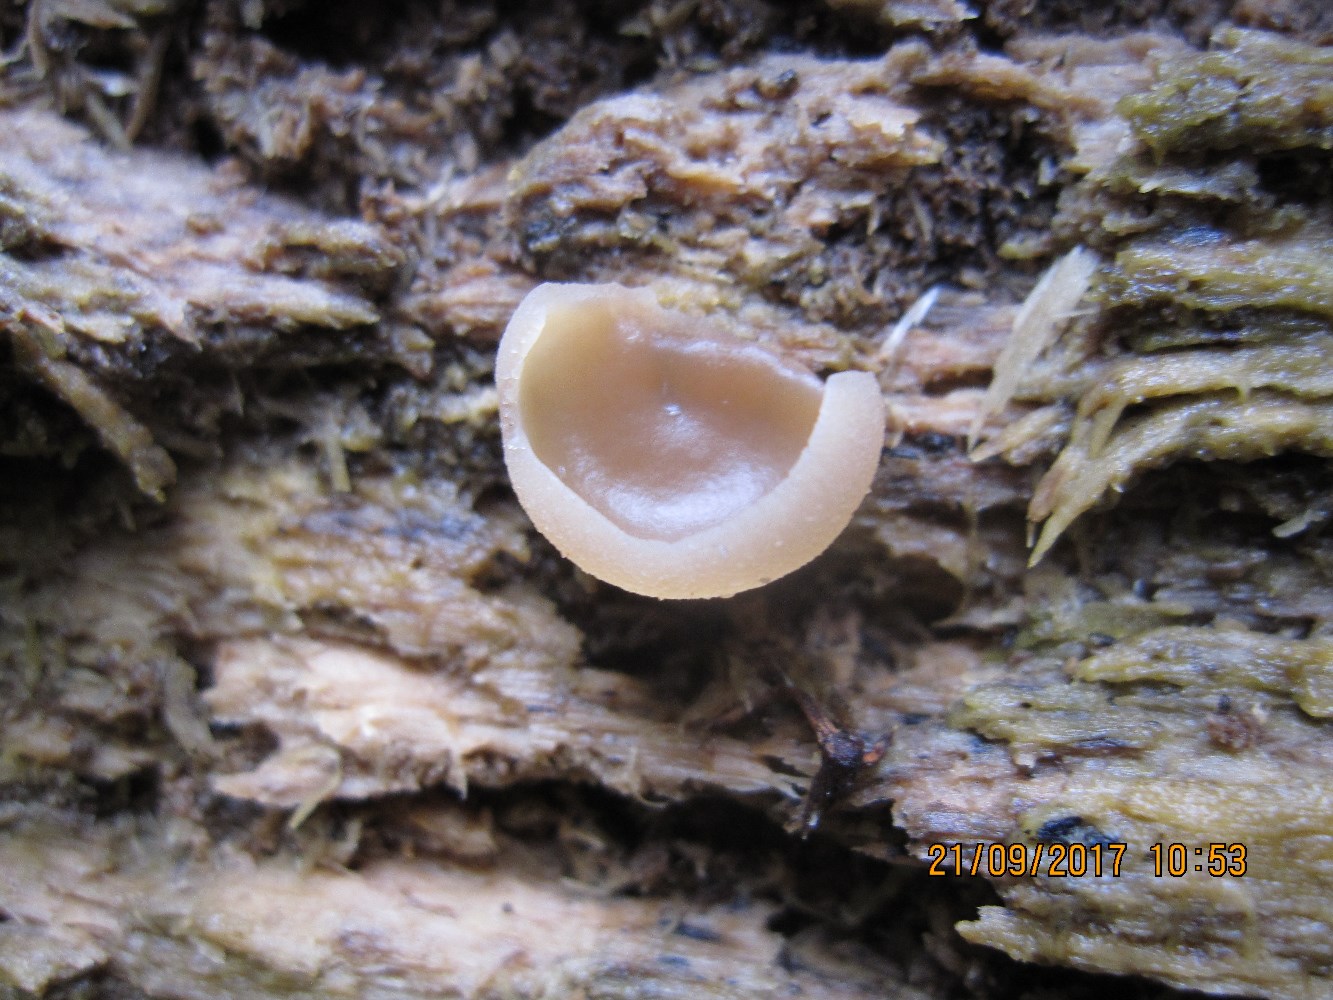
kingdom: Fungi
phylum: Ascomycota
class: Pezizomycetes
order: Pezizales
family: Pezizaceae
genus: Peziza
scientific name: Peziza varia
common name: Ved-bægersvamp
